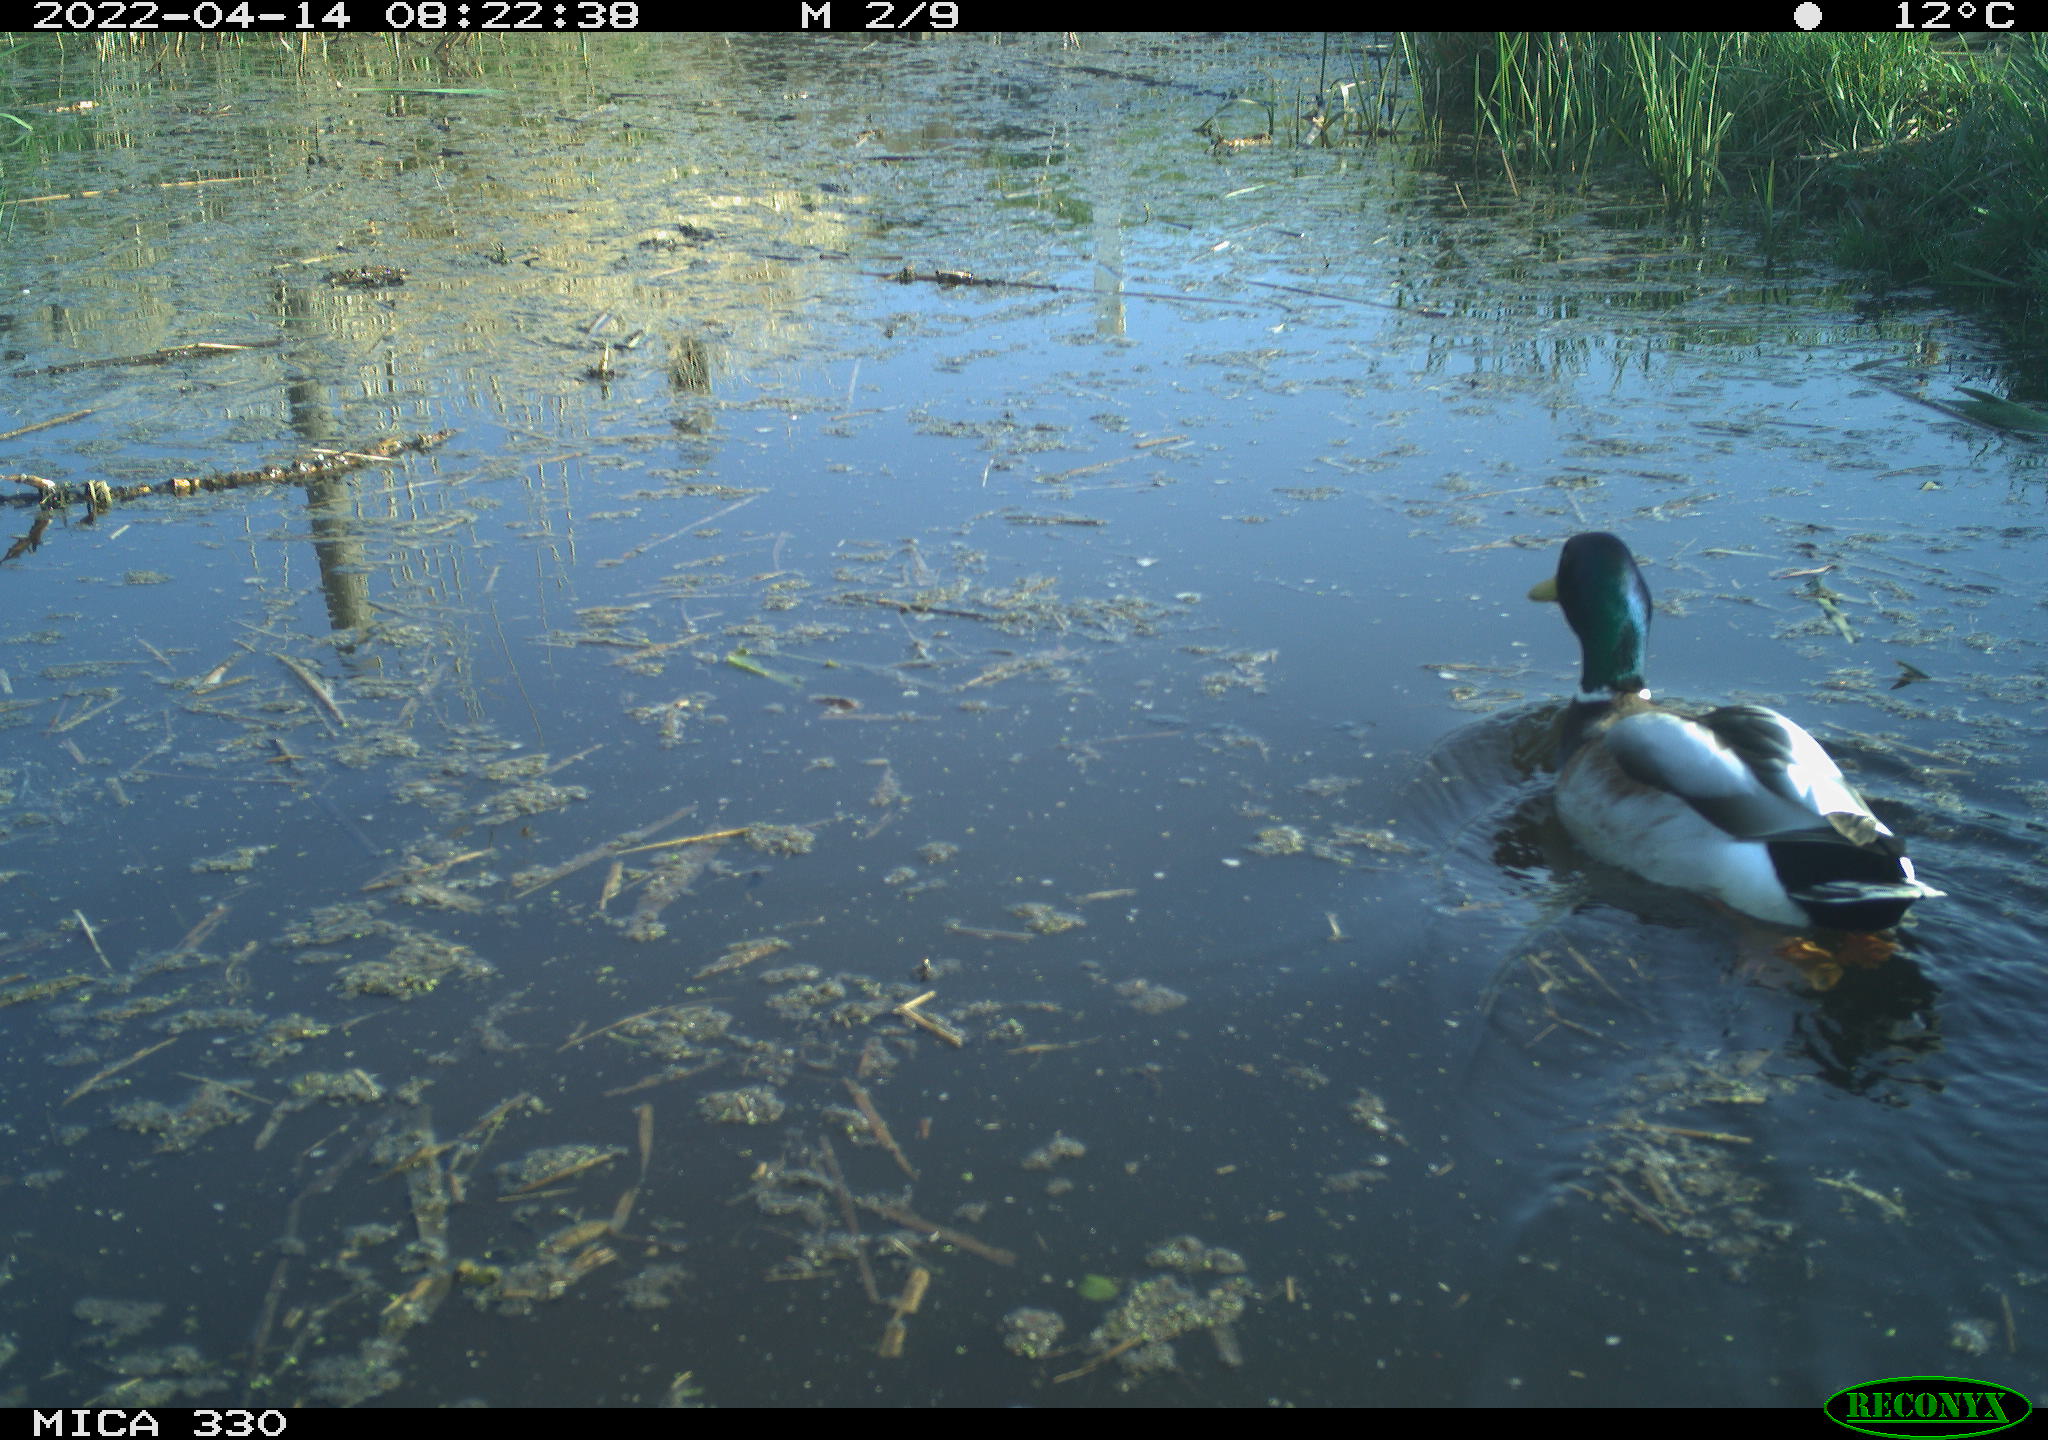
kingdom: Animalia
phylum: Chordata
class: Aves
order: Anseriformes
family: Anatidae
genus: Anas
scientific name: Anas platyrhynchos
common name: Mallard
